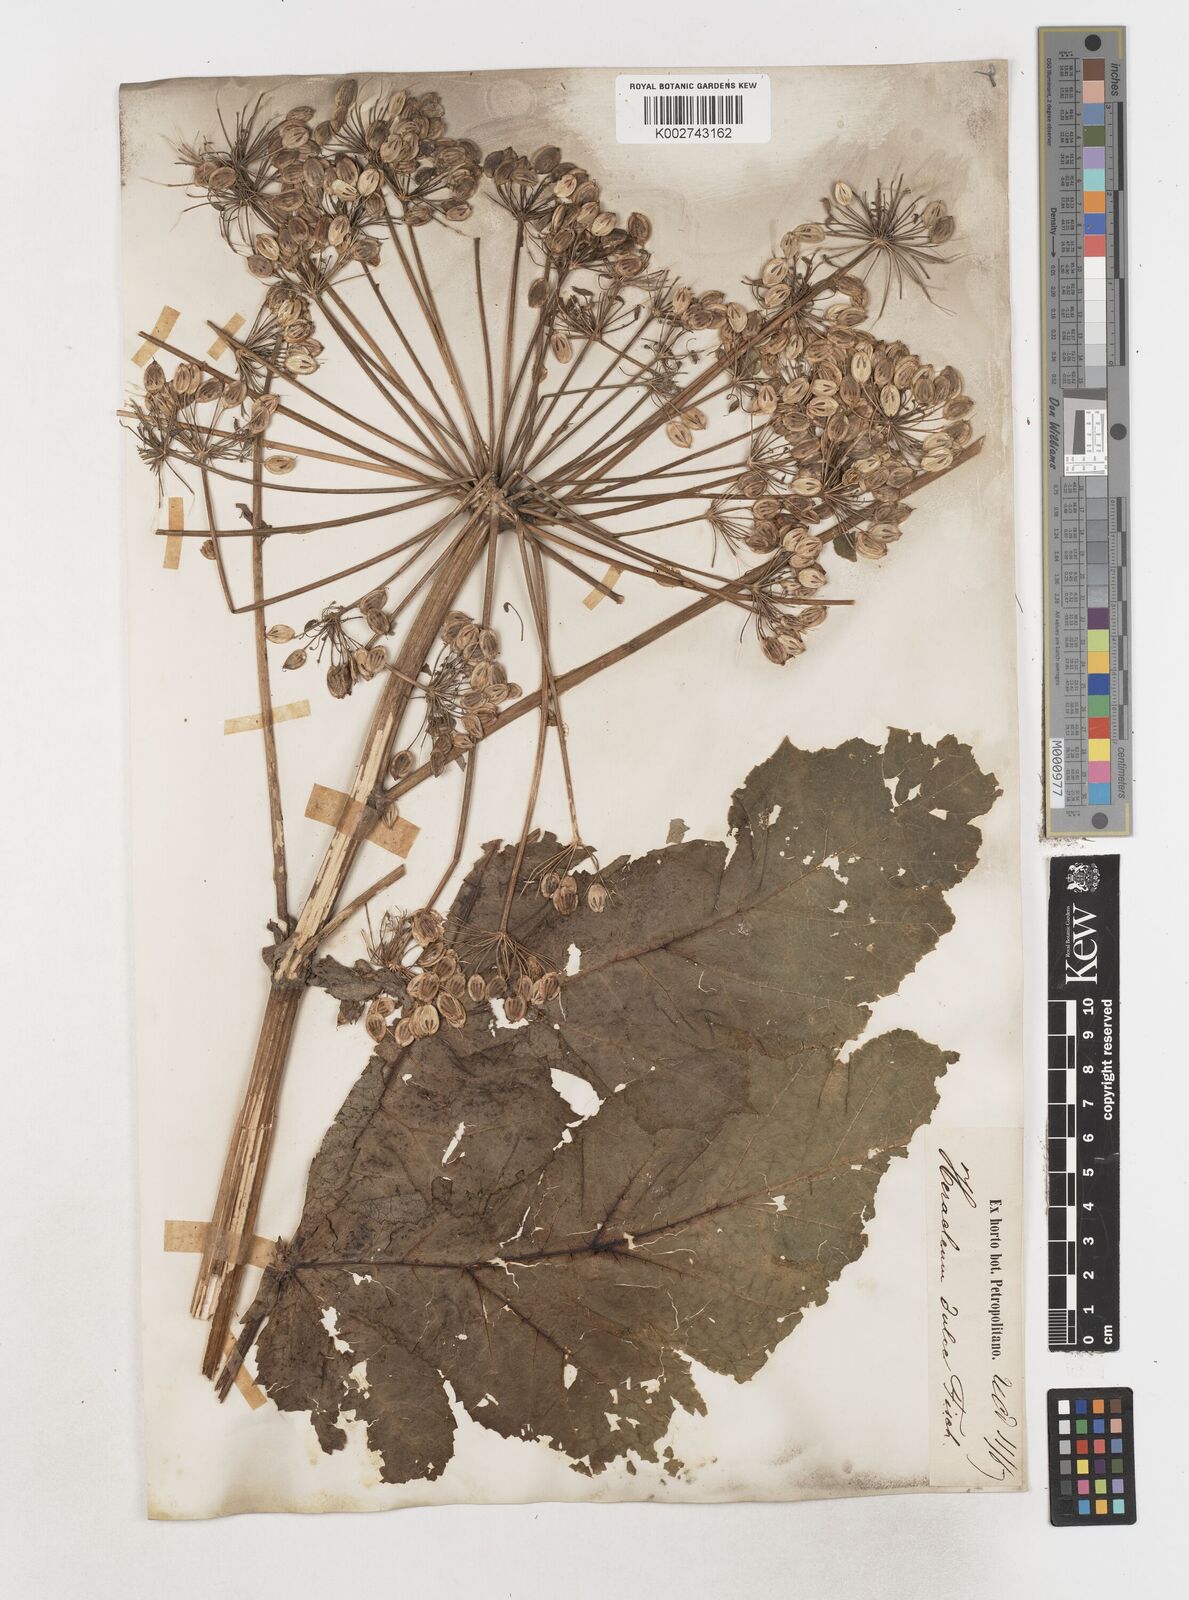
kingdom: Plantae
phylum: Tracheophyta
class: Magnoliopsida
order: Apiales
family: Apiaceae
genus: Heracleum
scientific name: Heracleum
